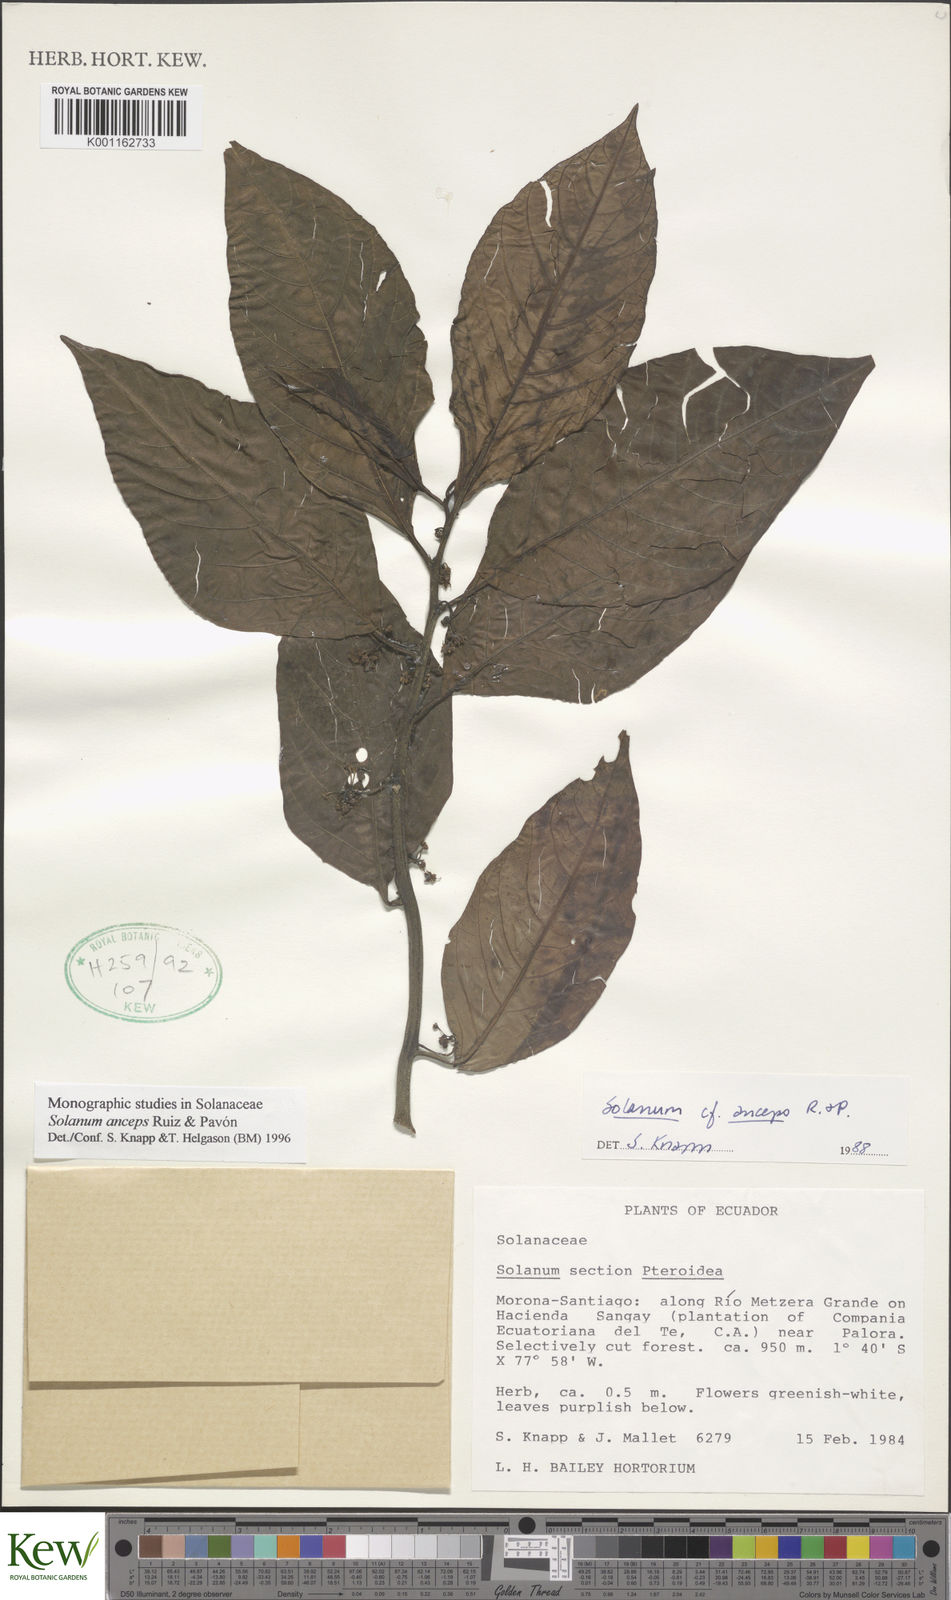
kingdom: Plantae
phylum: Tracheophyta
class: Magnoliopsida
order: Solanales
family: Solanaceae
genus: Solanum
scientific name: Solanum anceps
